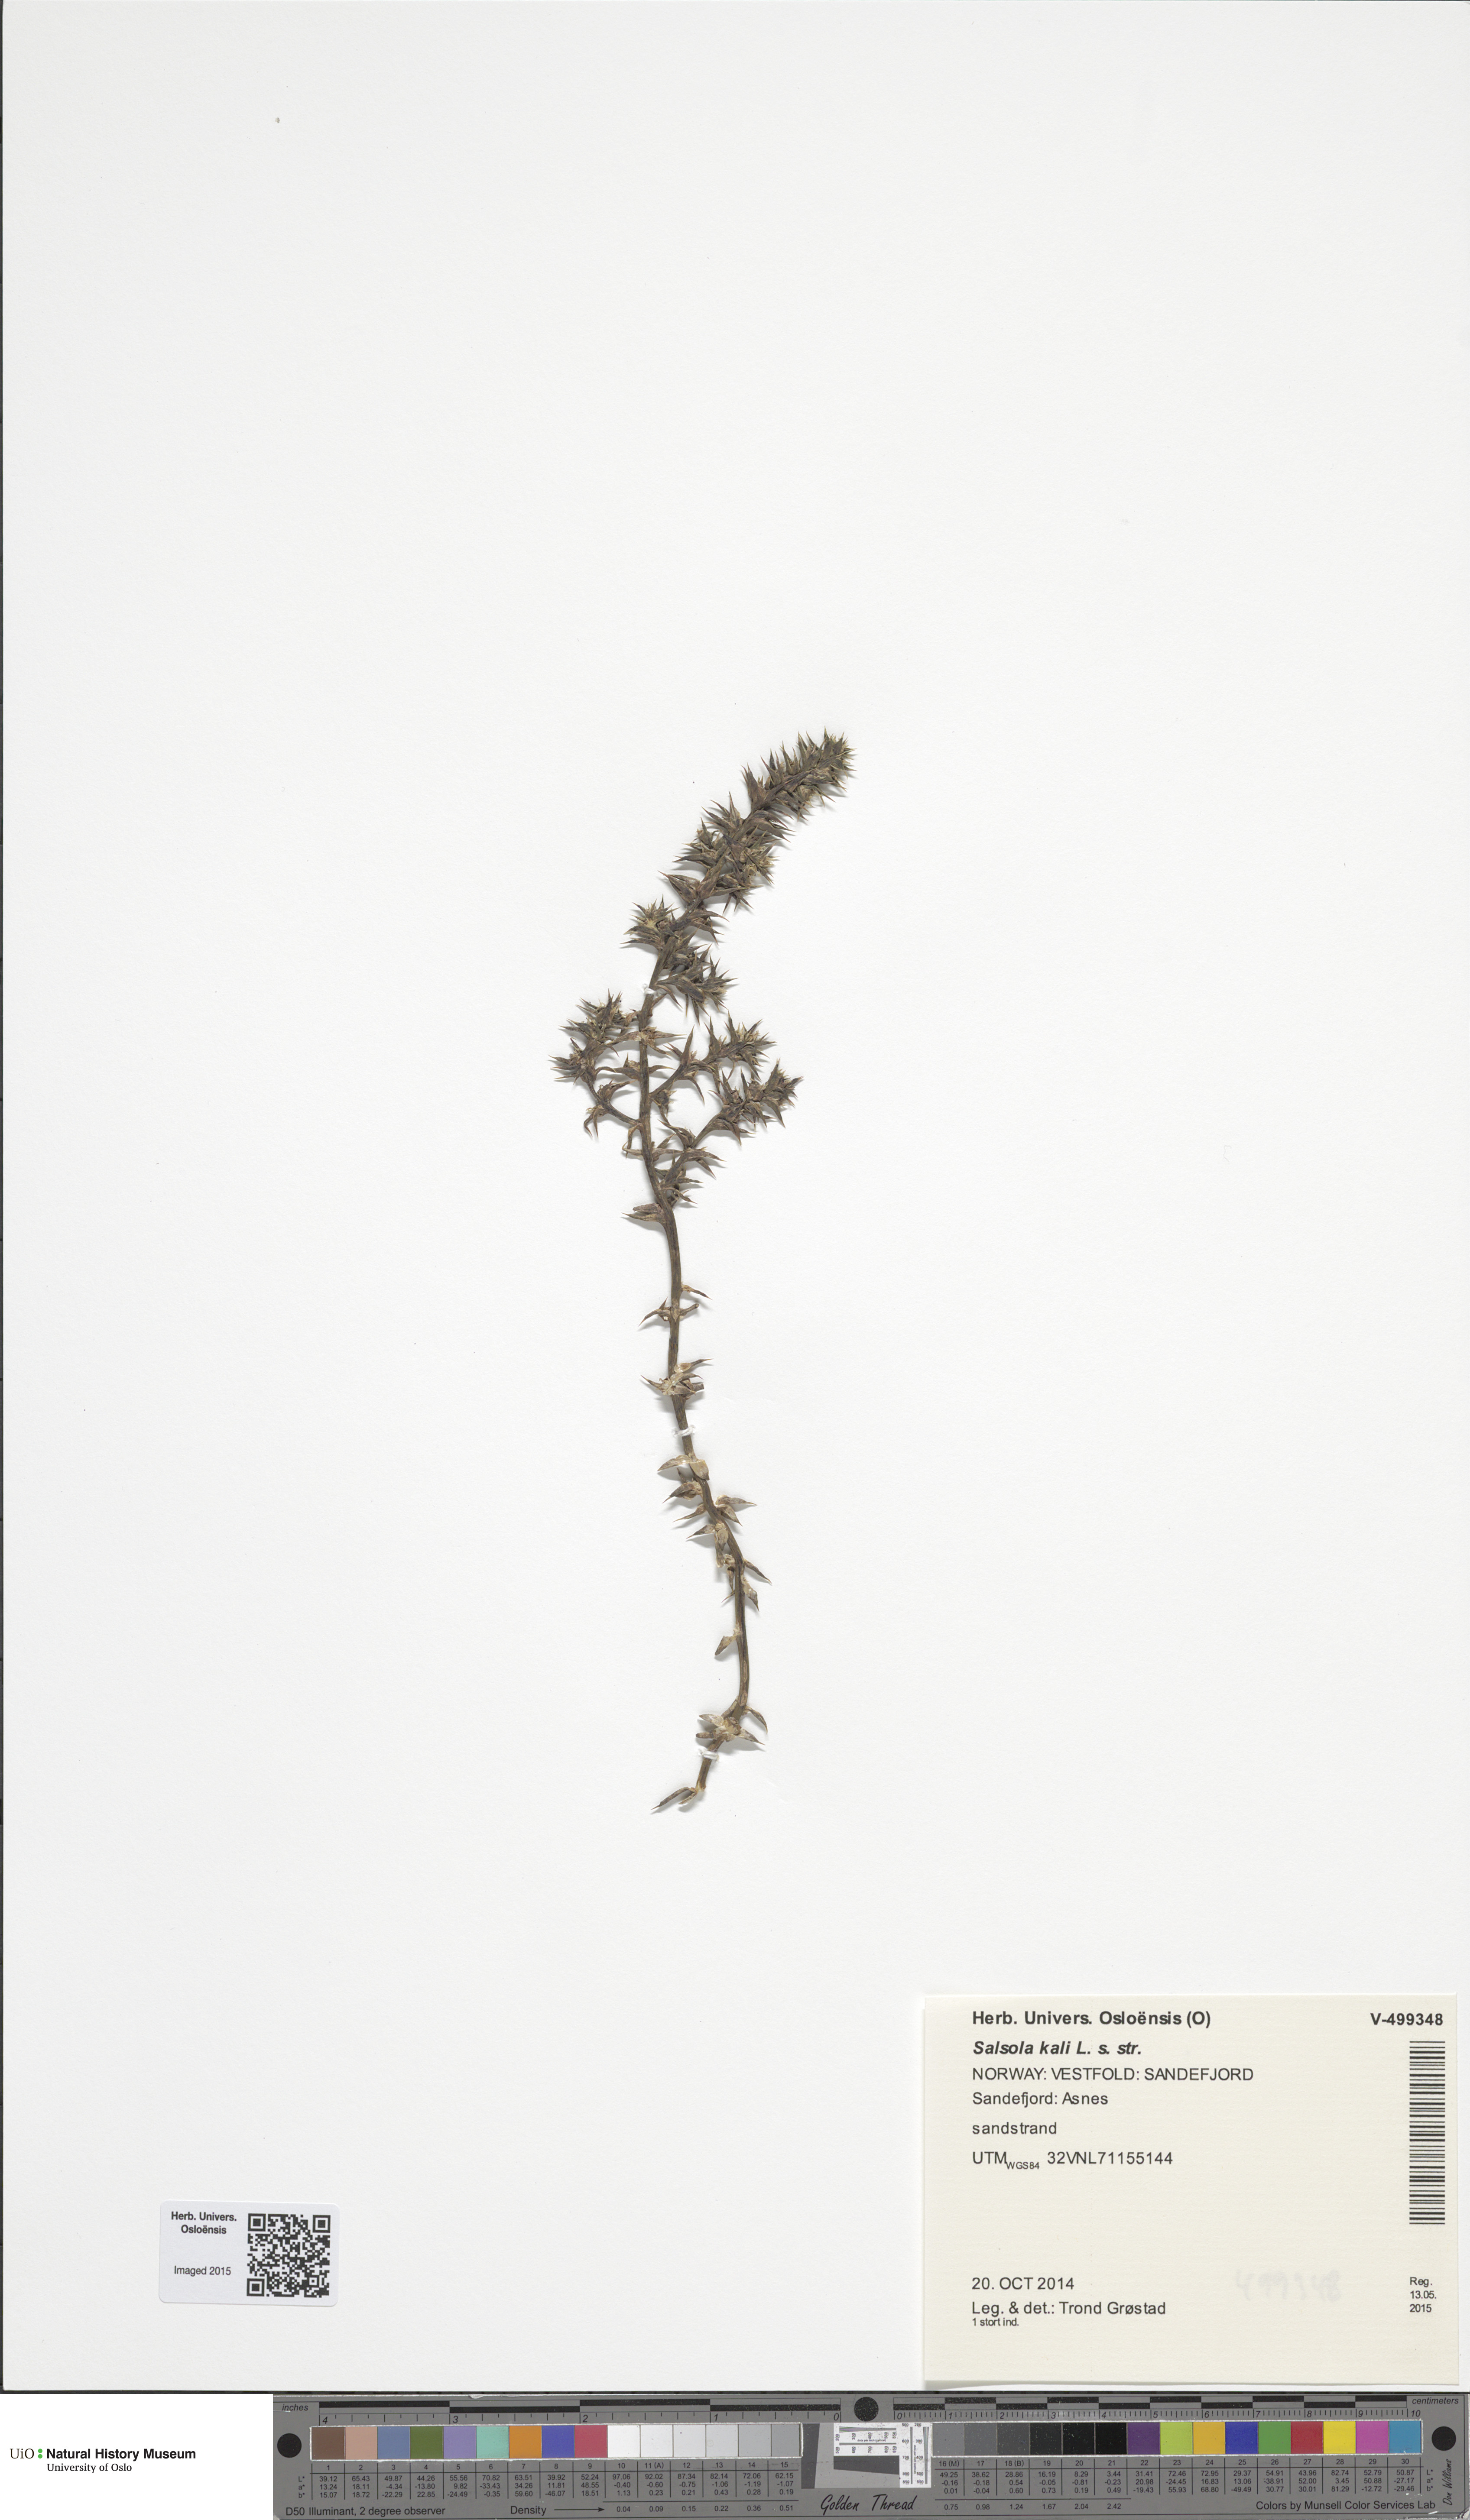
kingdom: Plantae
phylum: Tracheophyta
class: Magnoliopsida
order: Caryophyllales
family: Amaranthaceae
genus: Salsola
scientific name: Salsola kali
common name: Saltwort
